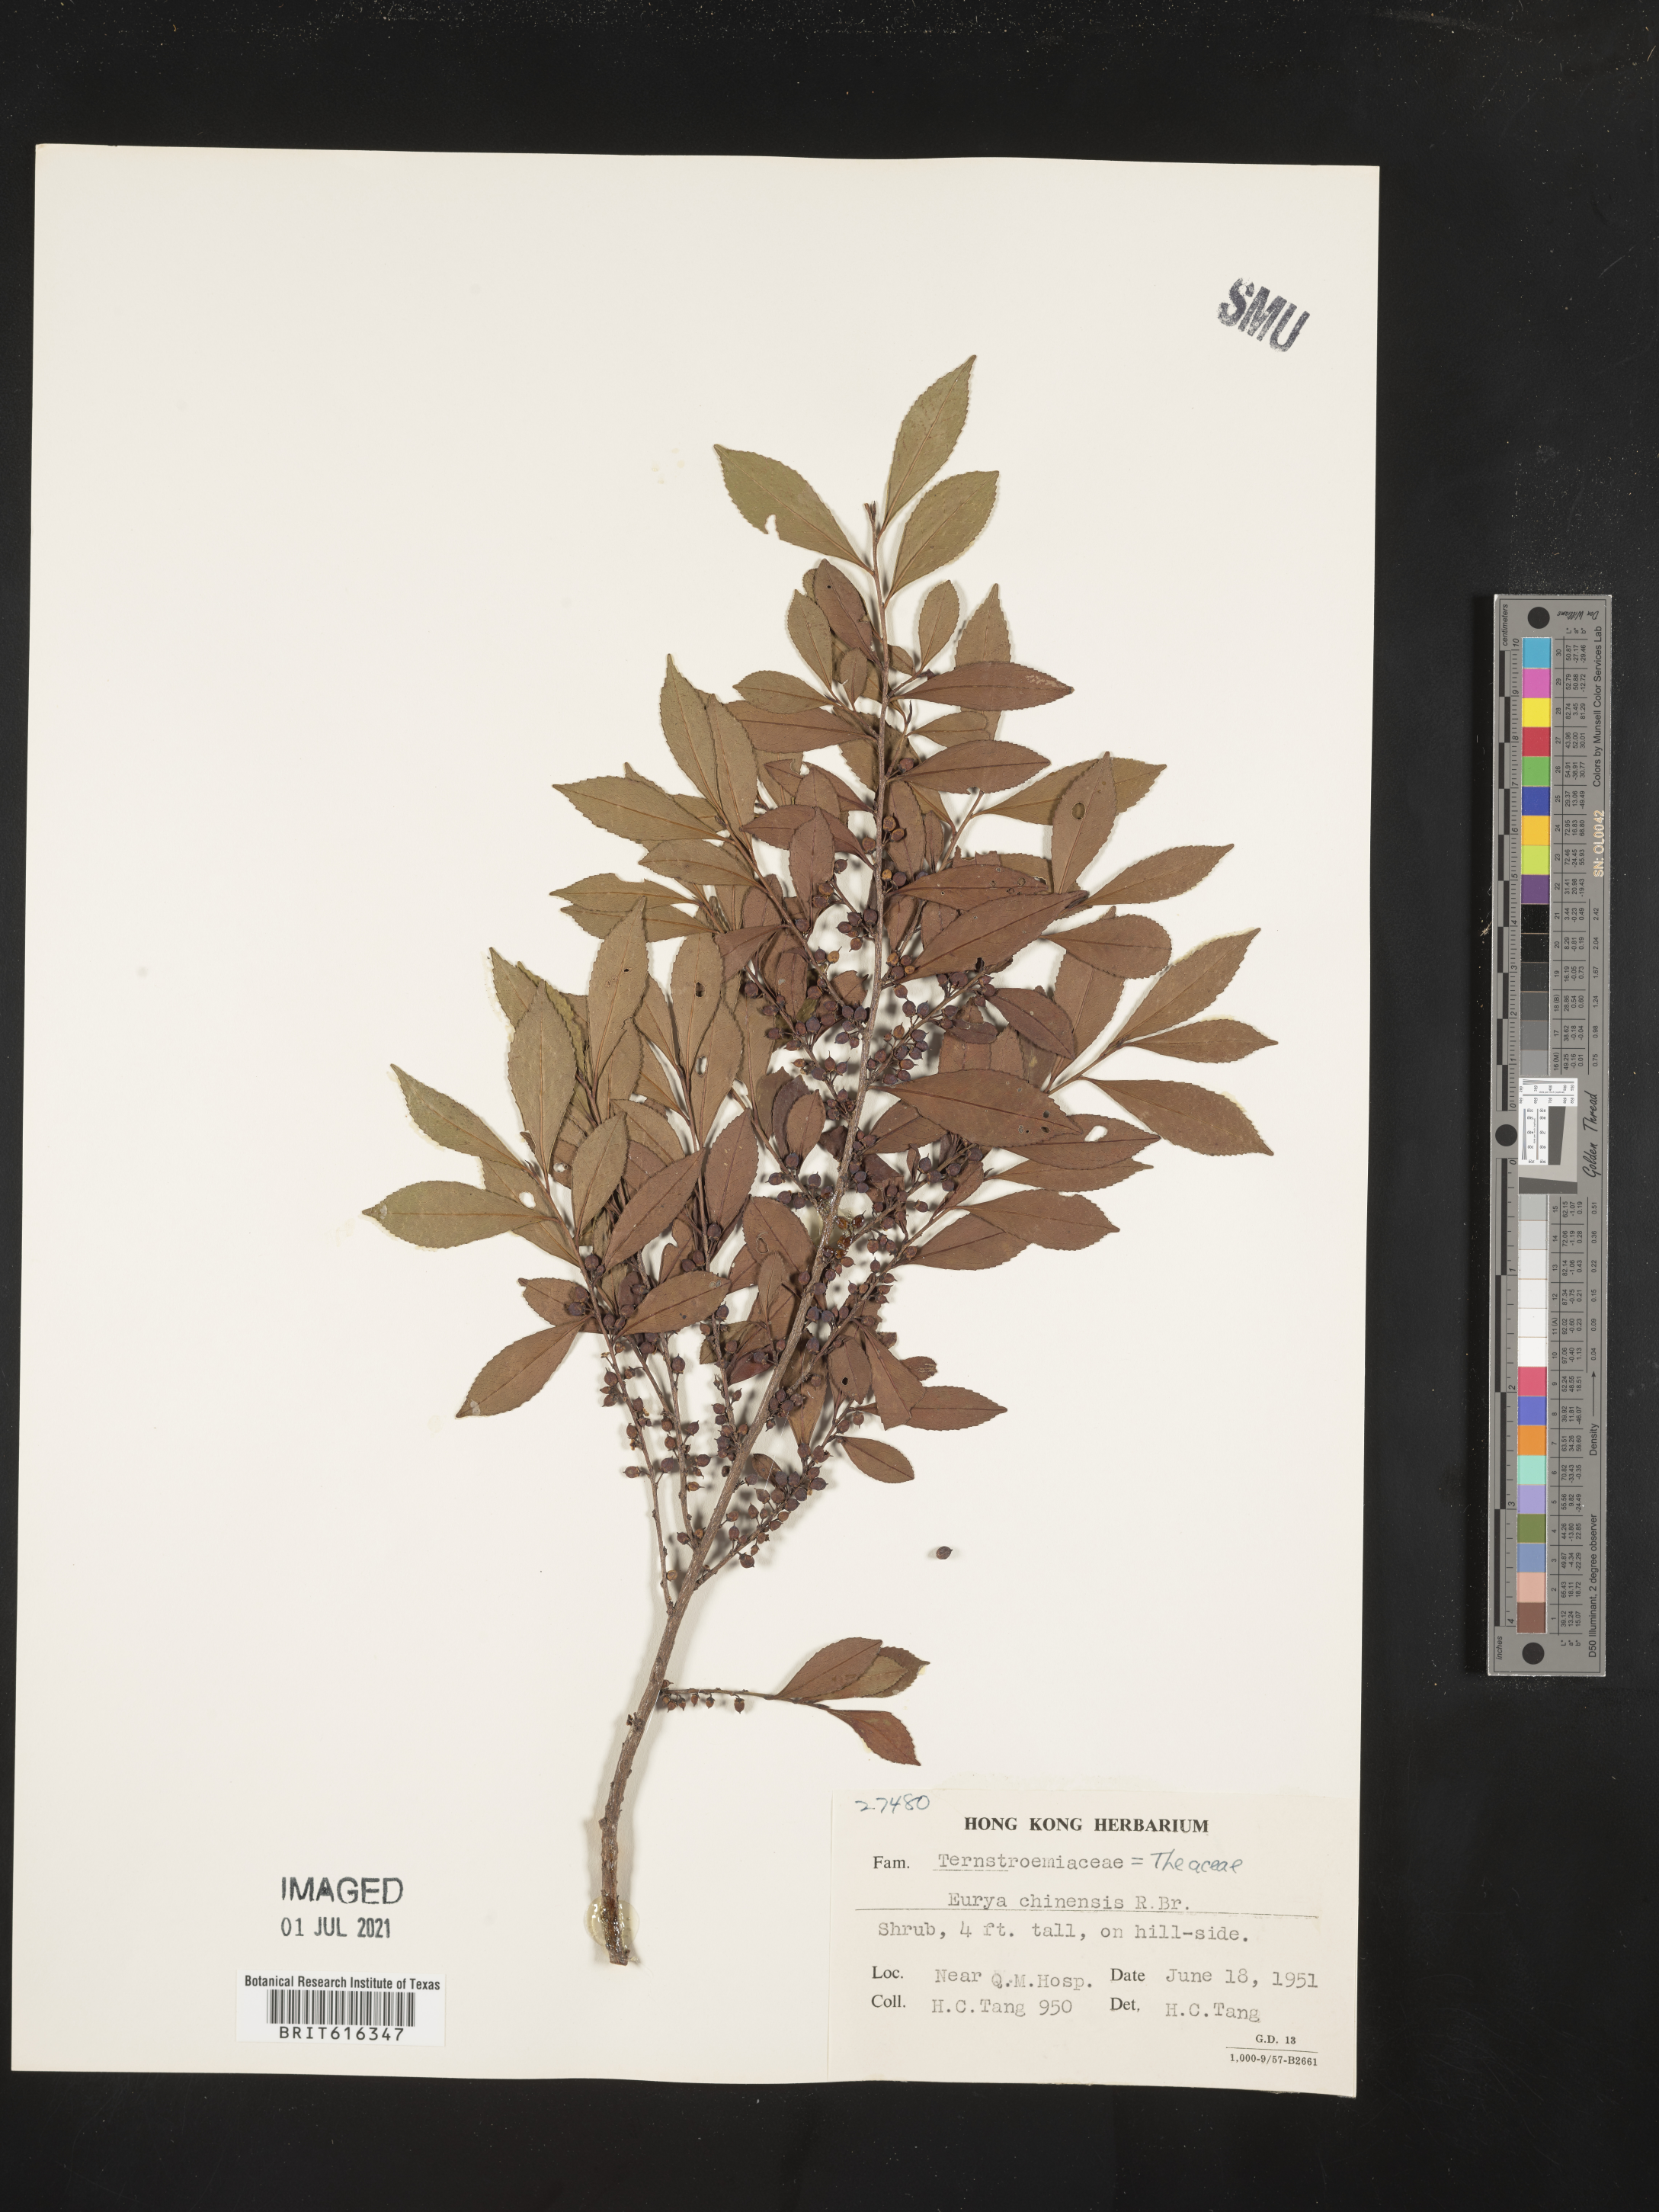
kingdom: Plantae
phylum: Tracheophyta
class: Magnoliopsida
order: Ericales
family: Pentaphylacaceae
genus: Eurya
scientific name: Eurya chinensis
